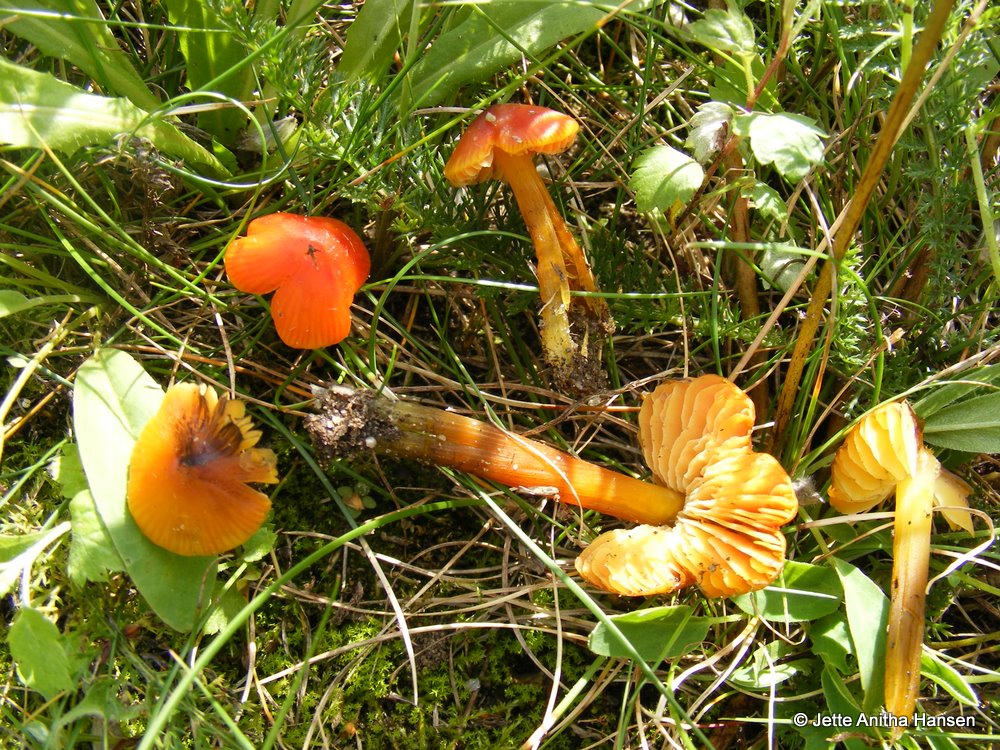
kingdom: Fungi
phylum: Basidiomycota
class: Agaricomycetes
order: Agaricales
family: Hygrophoraceae
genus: Hygrocybe
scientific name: Hygrocybe conica
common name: kegle-vokshat
